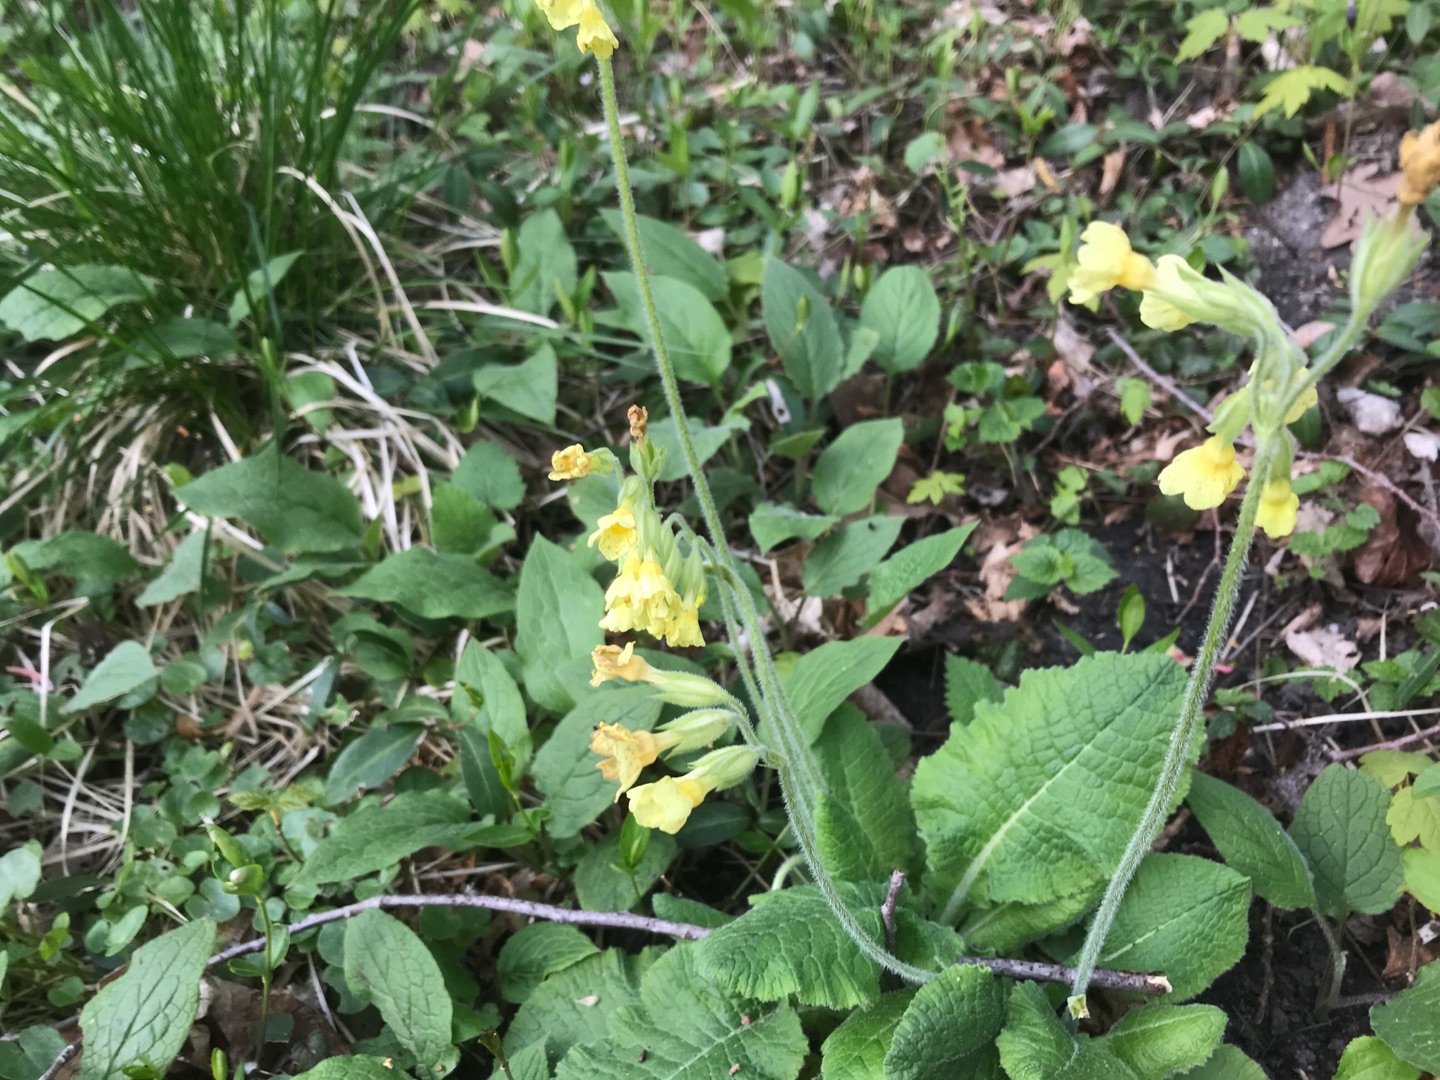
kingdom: Plantae
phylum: Tracheophyta
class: Magnoliopsida
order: Ericales
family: Primulaceae
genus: Primula
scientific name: Primula elatior
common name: Fladkravet kodriver
